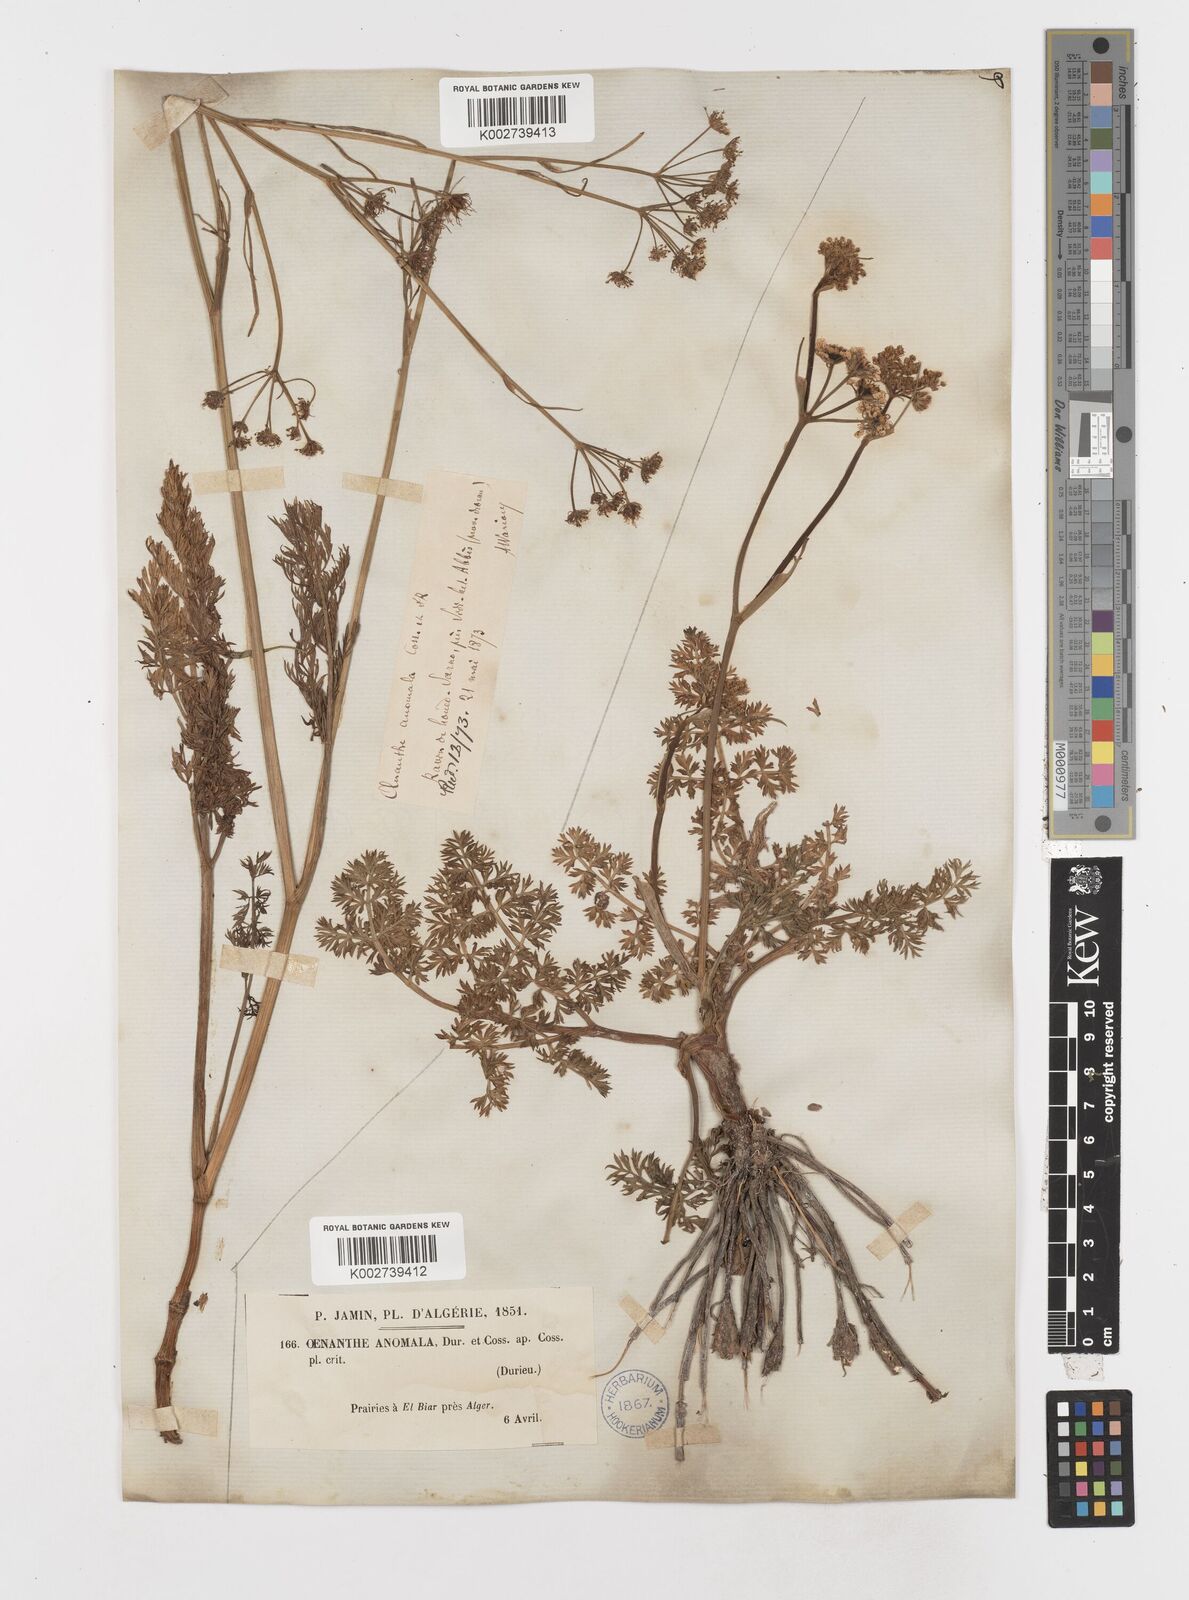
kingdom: Plantae
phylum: Tracheophyta
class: Magnoliopsida
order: Apiales
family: Apiaceae
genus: Oenanthe
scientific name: Oenanthe virgata
